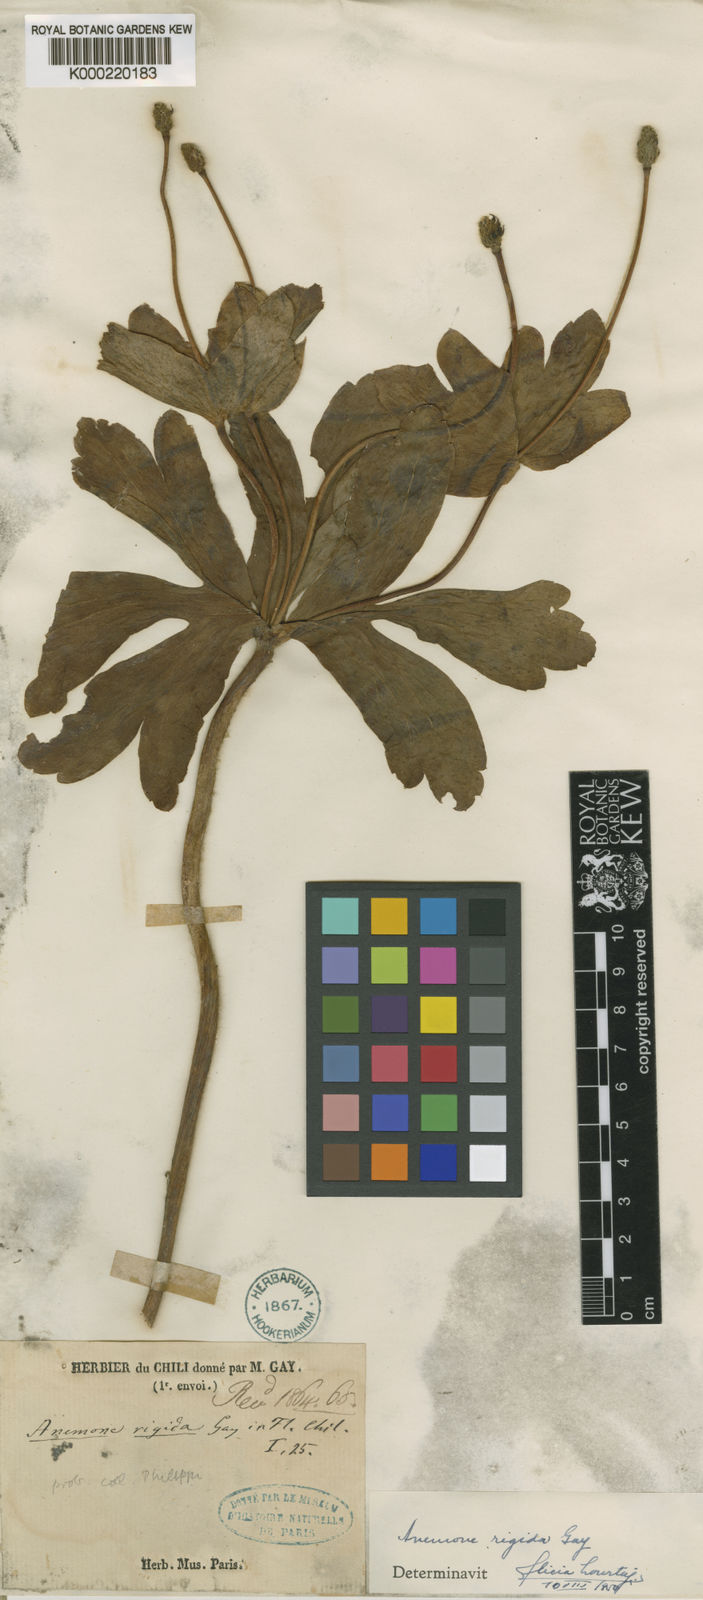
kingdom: Plantae
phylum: Tracheophyta
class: Magnoliopsida
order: Ranunculales
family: Ranunculaceae
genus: Knowltonia
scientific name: Knowltonia hootae
